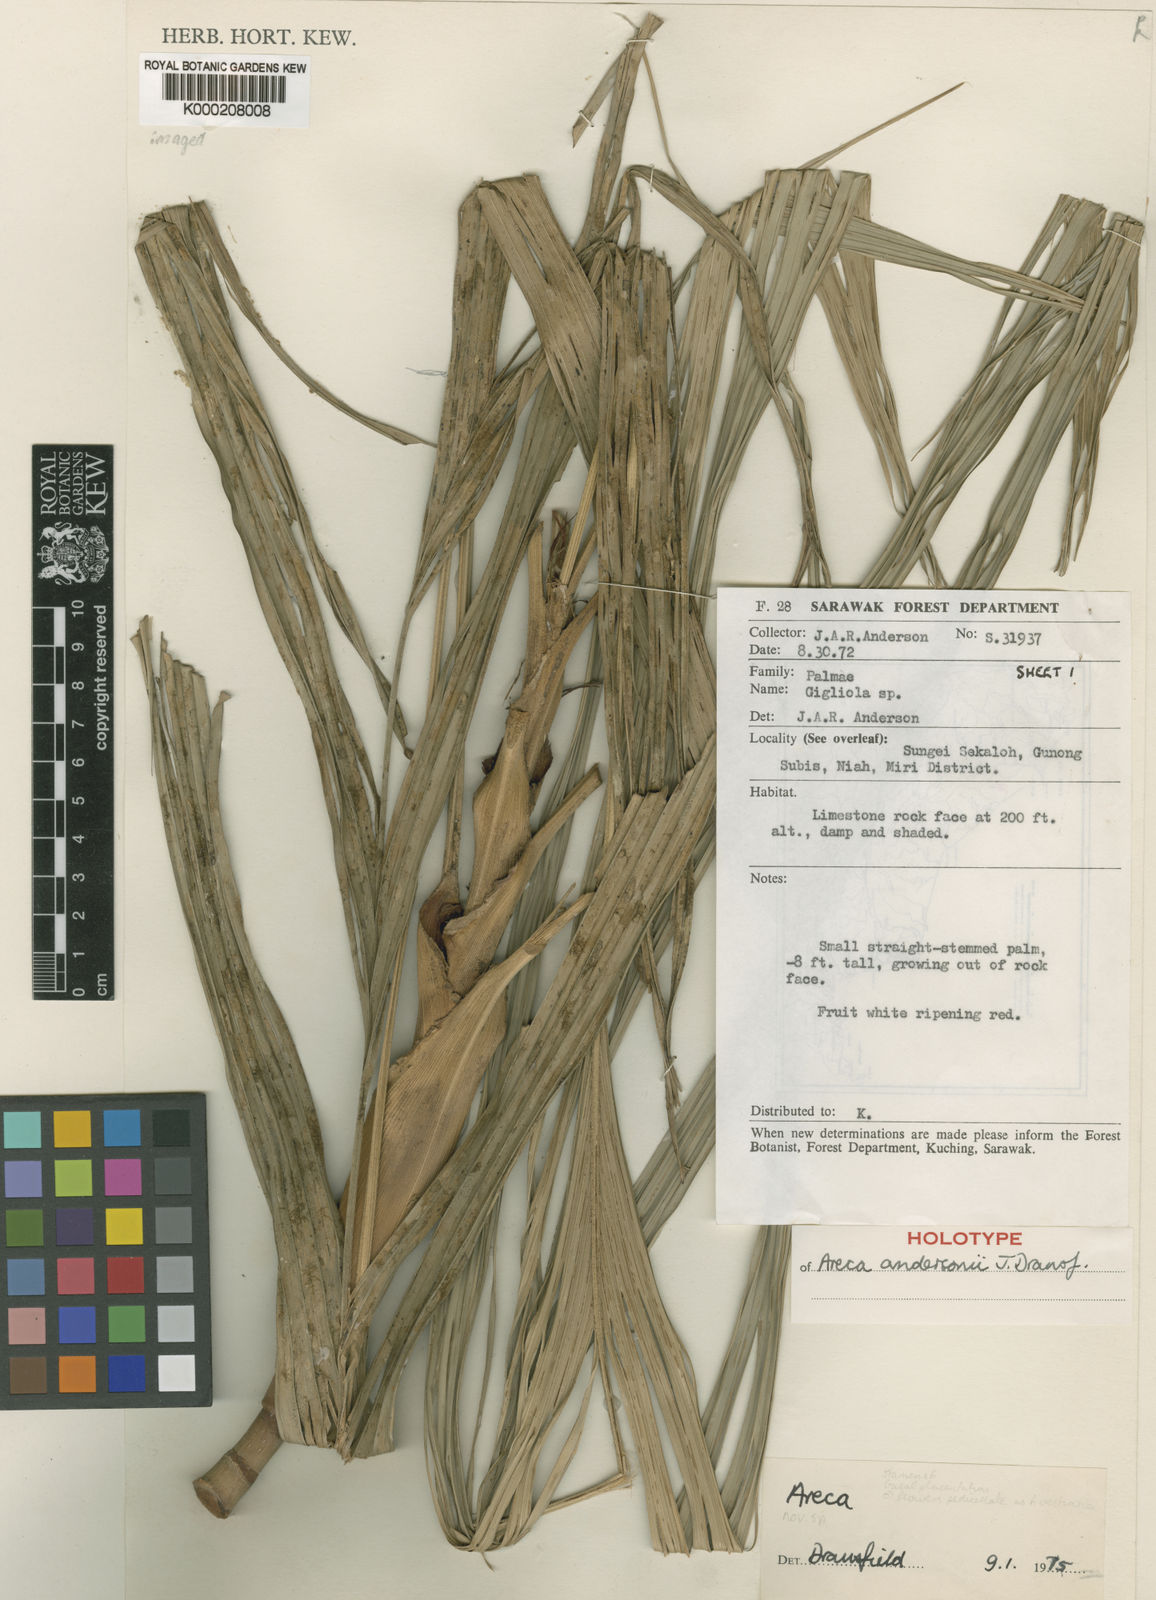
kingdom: Plantae
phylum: Tracheophyta
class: Liliopsida
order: Arecales
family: Arecaceae
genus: Areca
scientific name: Areca andersonii
